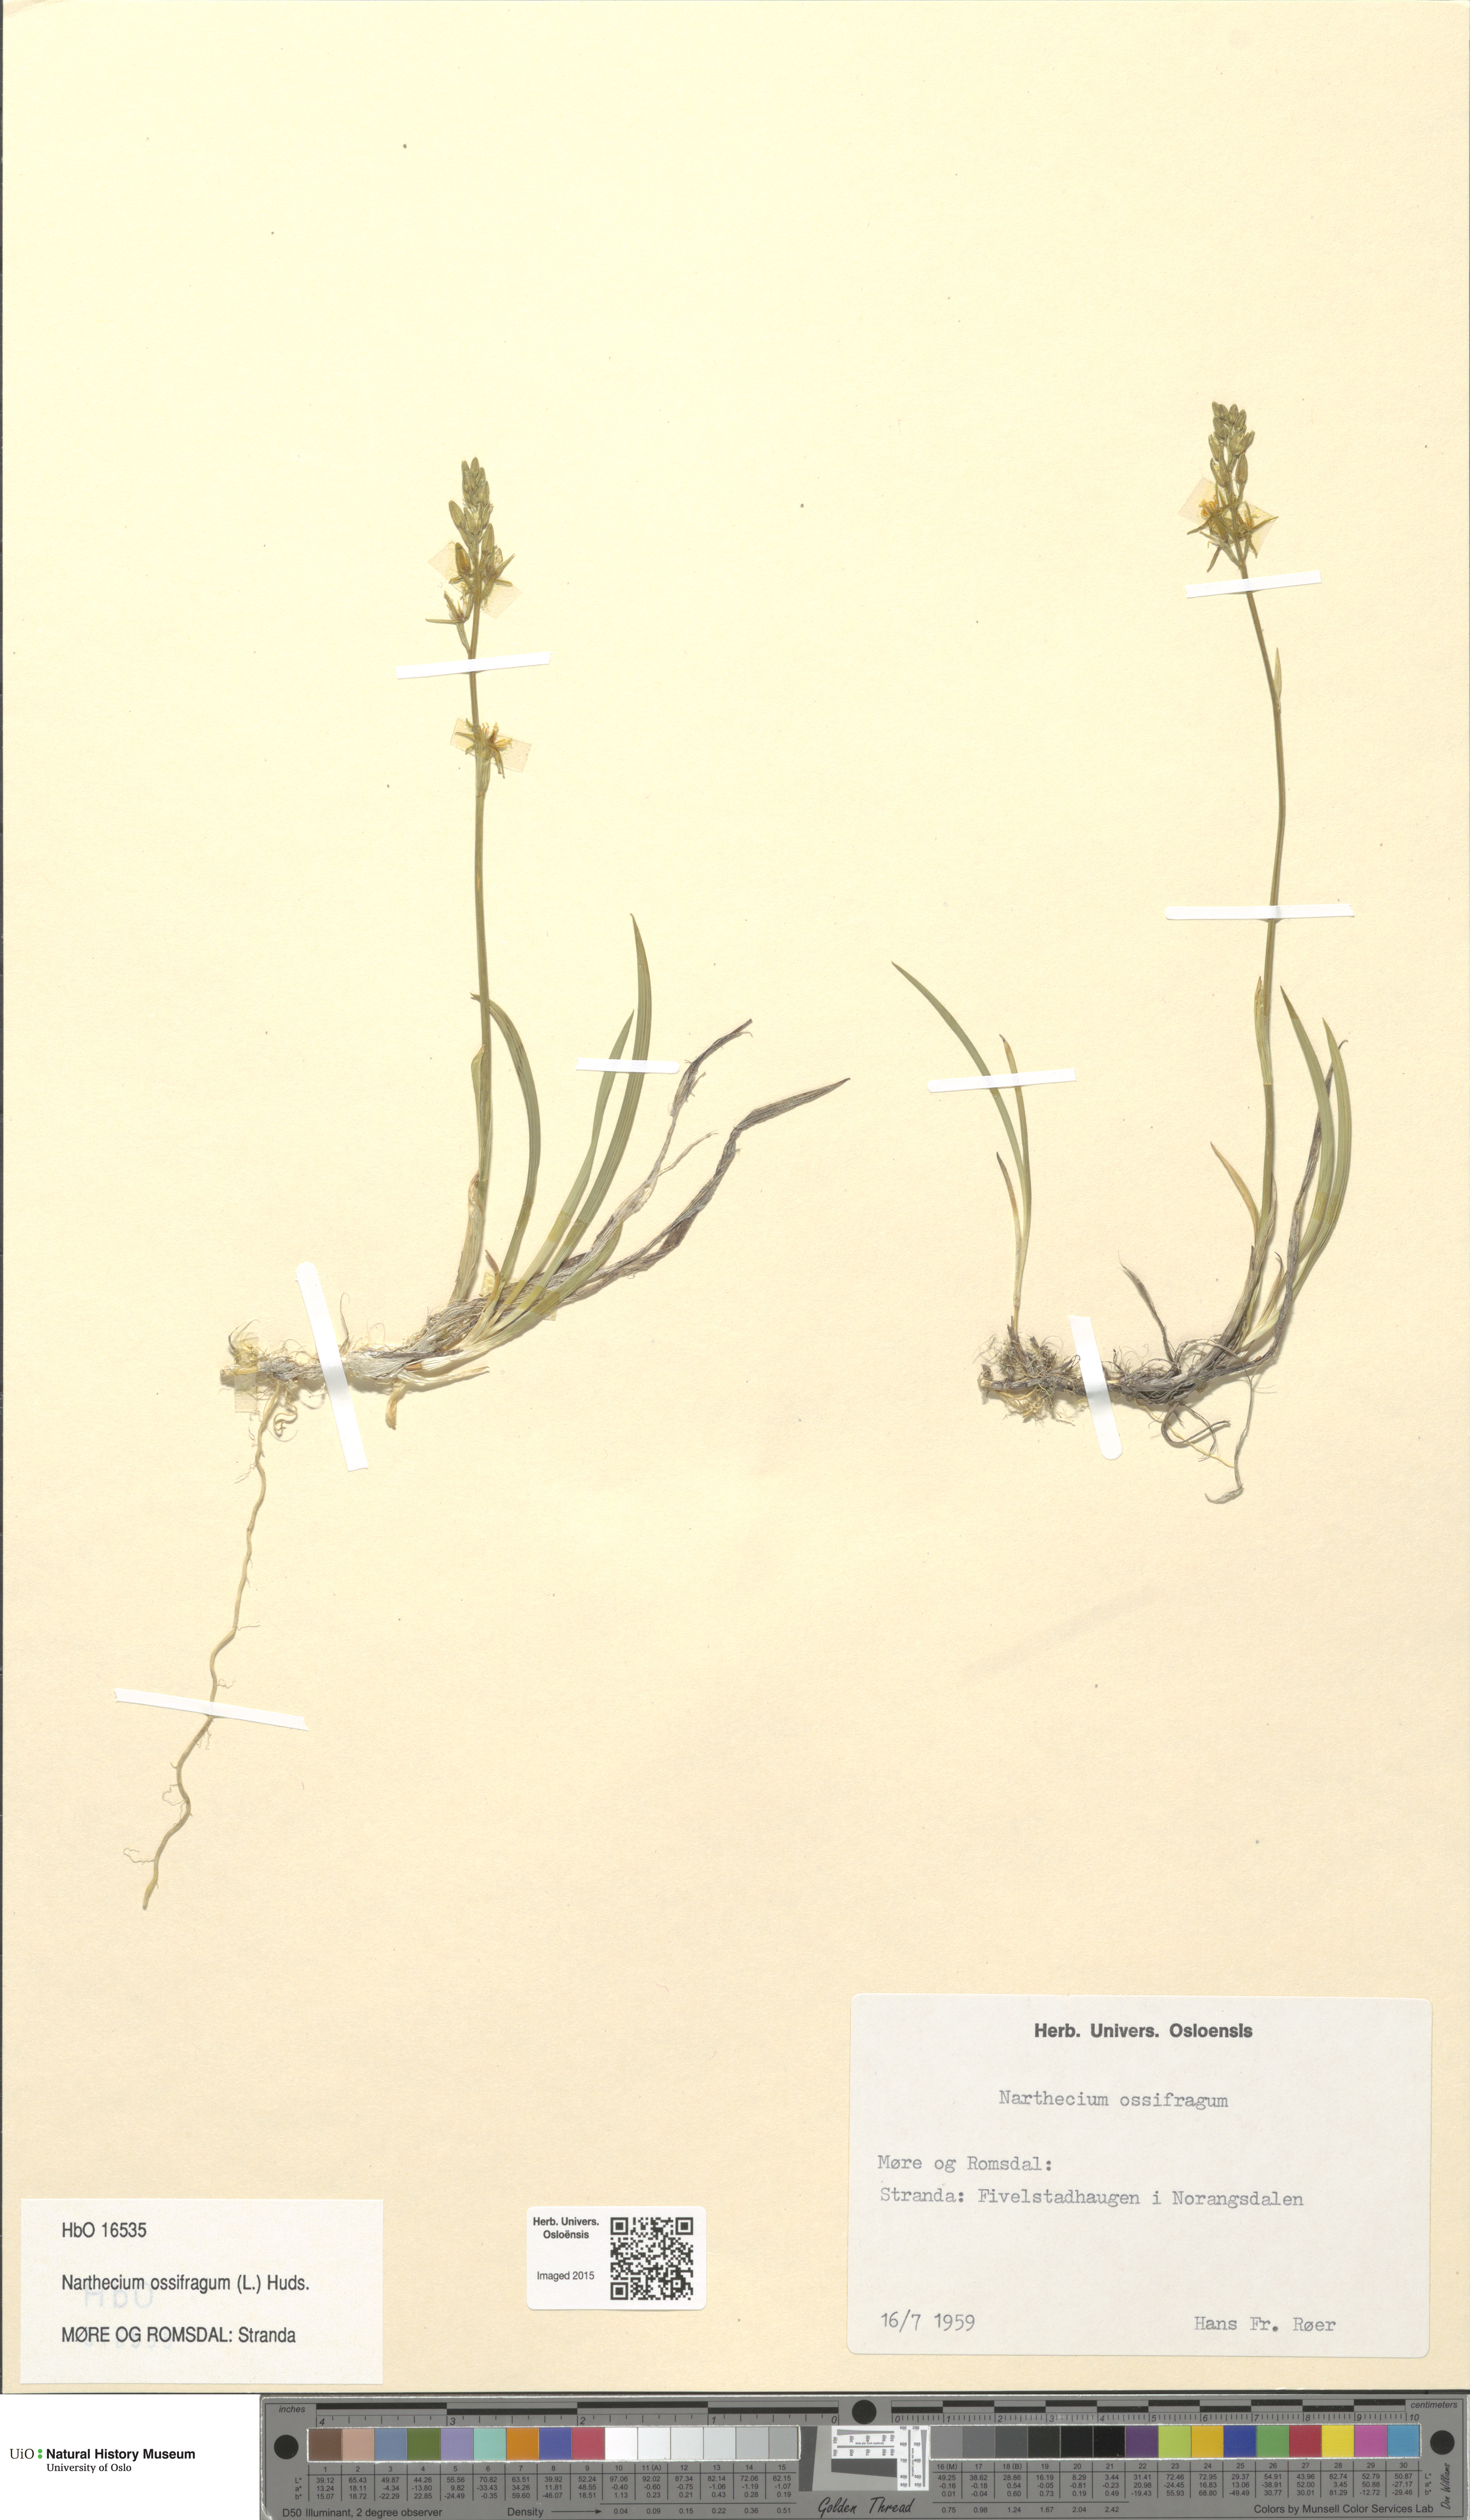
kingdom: Plantae
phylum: Tracheophyta
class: Liliopsida
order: Dioscoreales
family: Nartheciaceae
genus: Narthecium
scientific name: Narthecium ossifragum
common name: Bog asphodel
